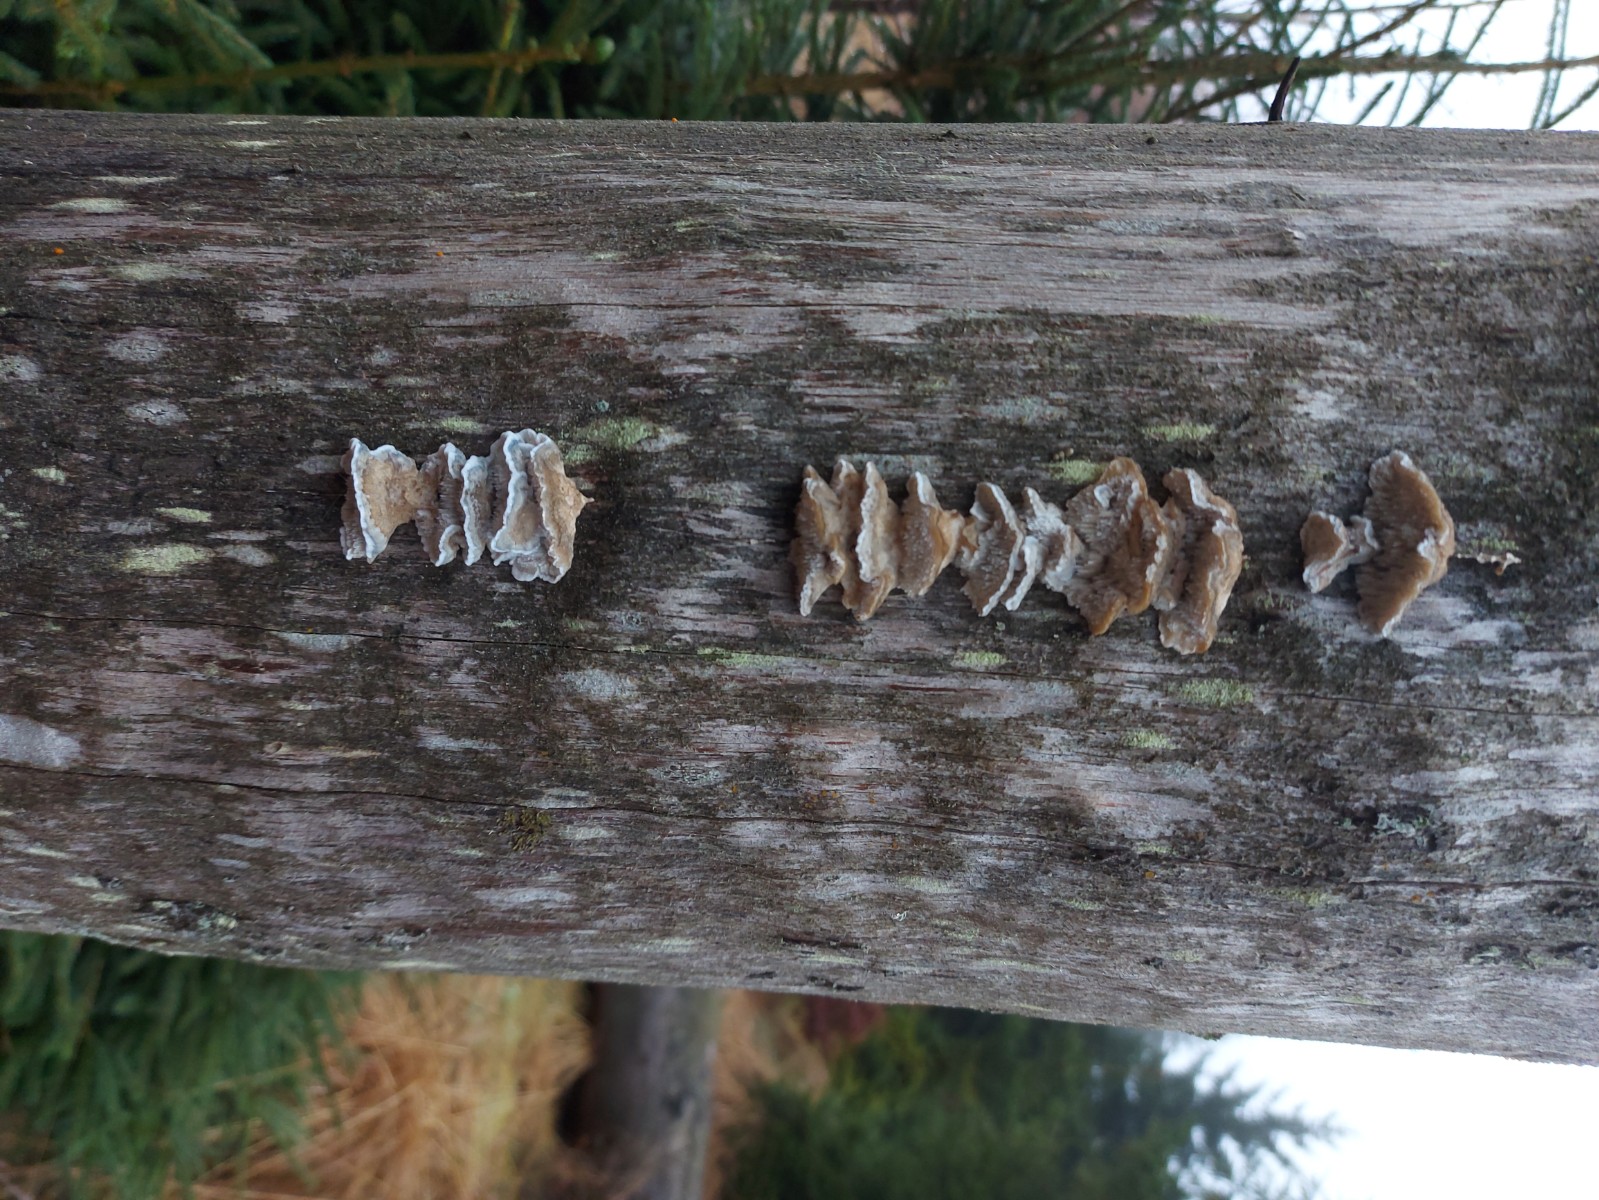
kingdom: Fungi
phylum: Basidiomycota
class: Agaricomycetes
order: Polyporales
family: Polyporaceae
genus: Cyanosporus
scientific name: Cyanosporus caesius
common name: blålig kødporesvamp
